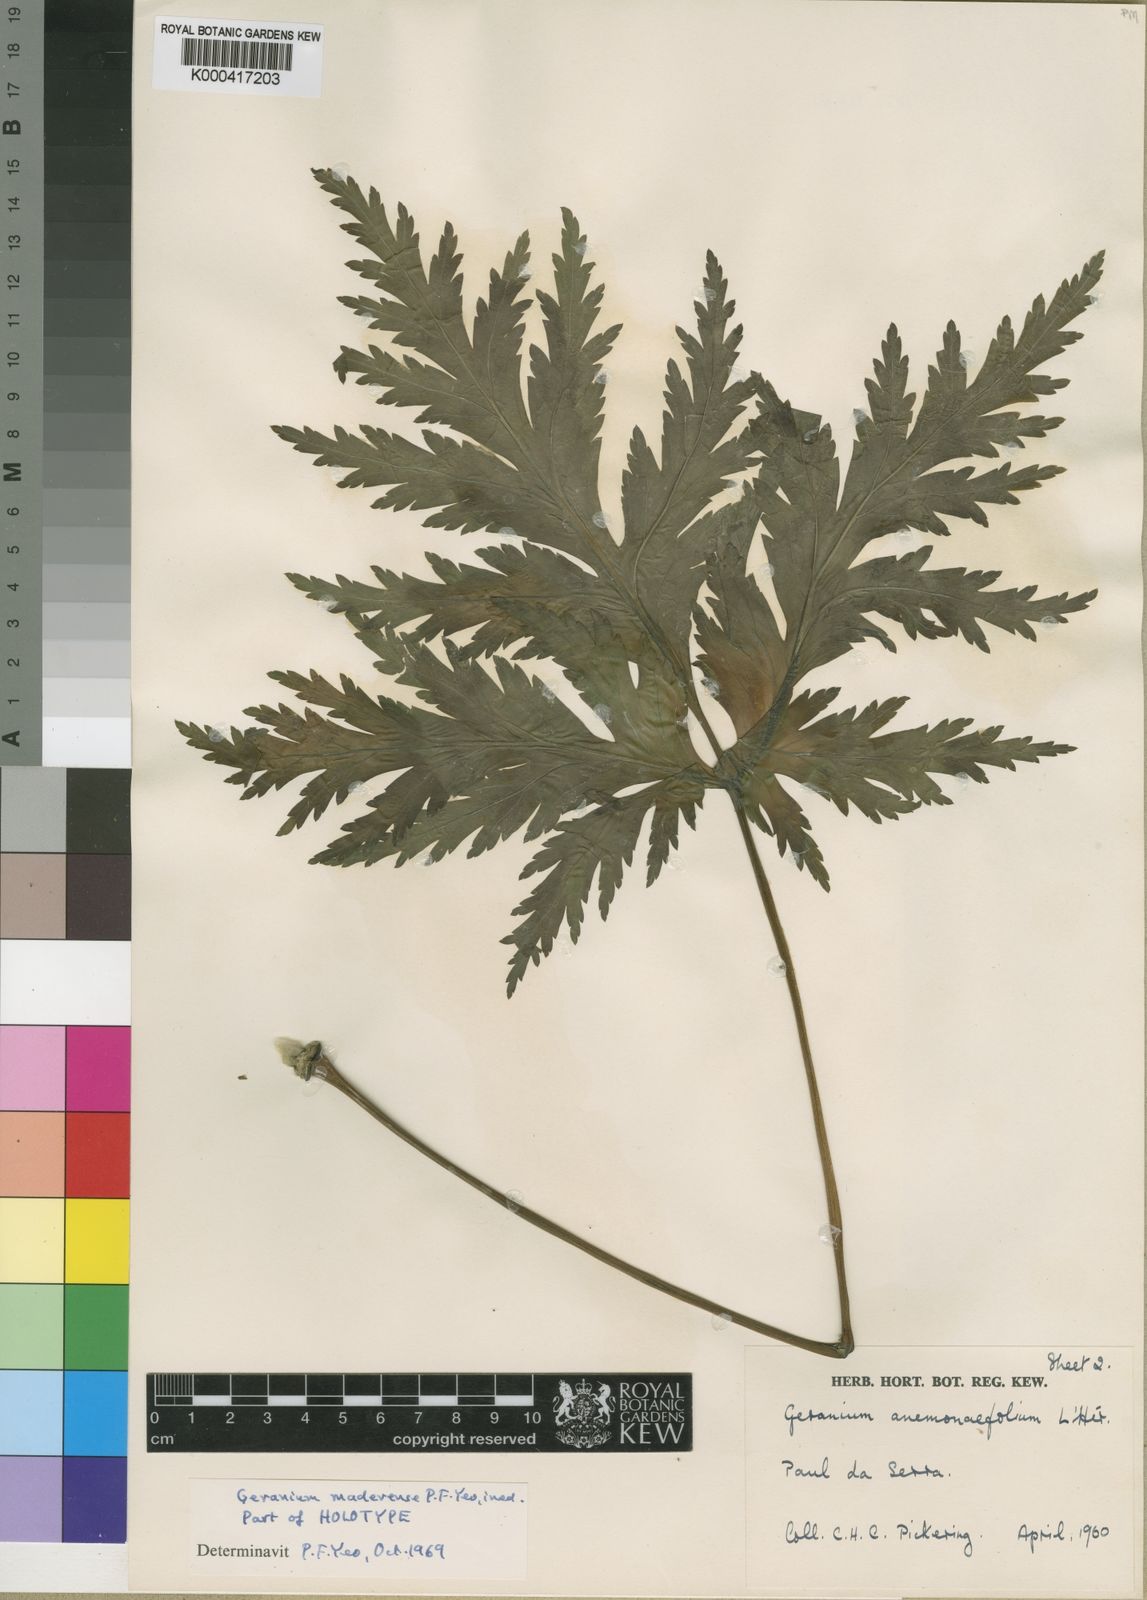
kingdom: Plantae
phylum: Tracheophyta
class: Magnoliopsida
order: Geraniales
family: Geraniaceae
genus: Geranium
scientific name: Geranium maderense
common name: Giant herb-robert
